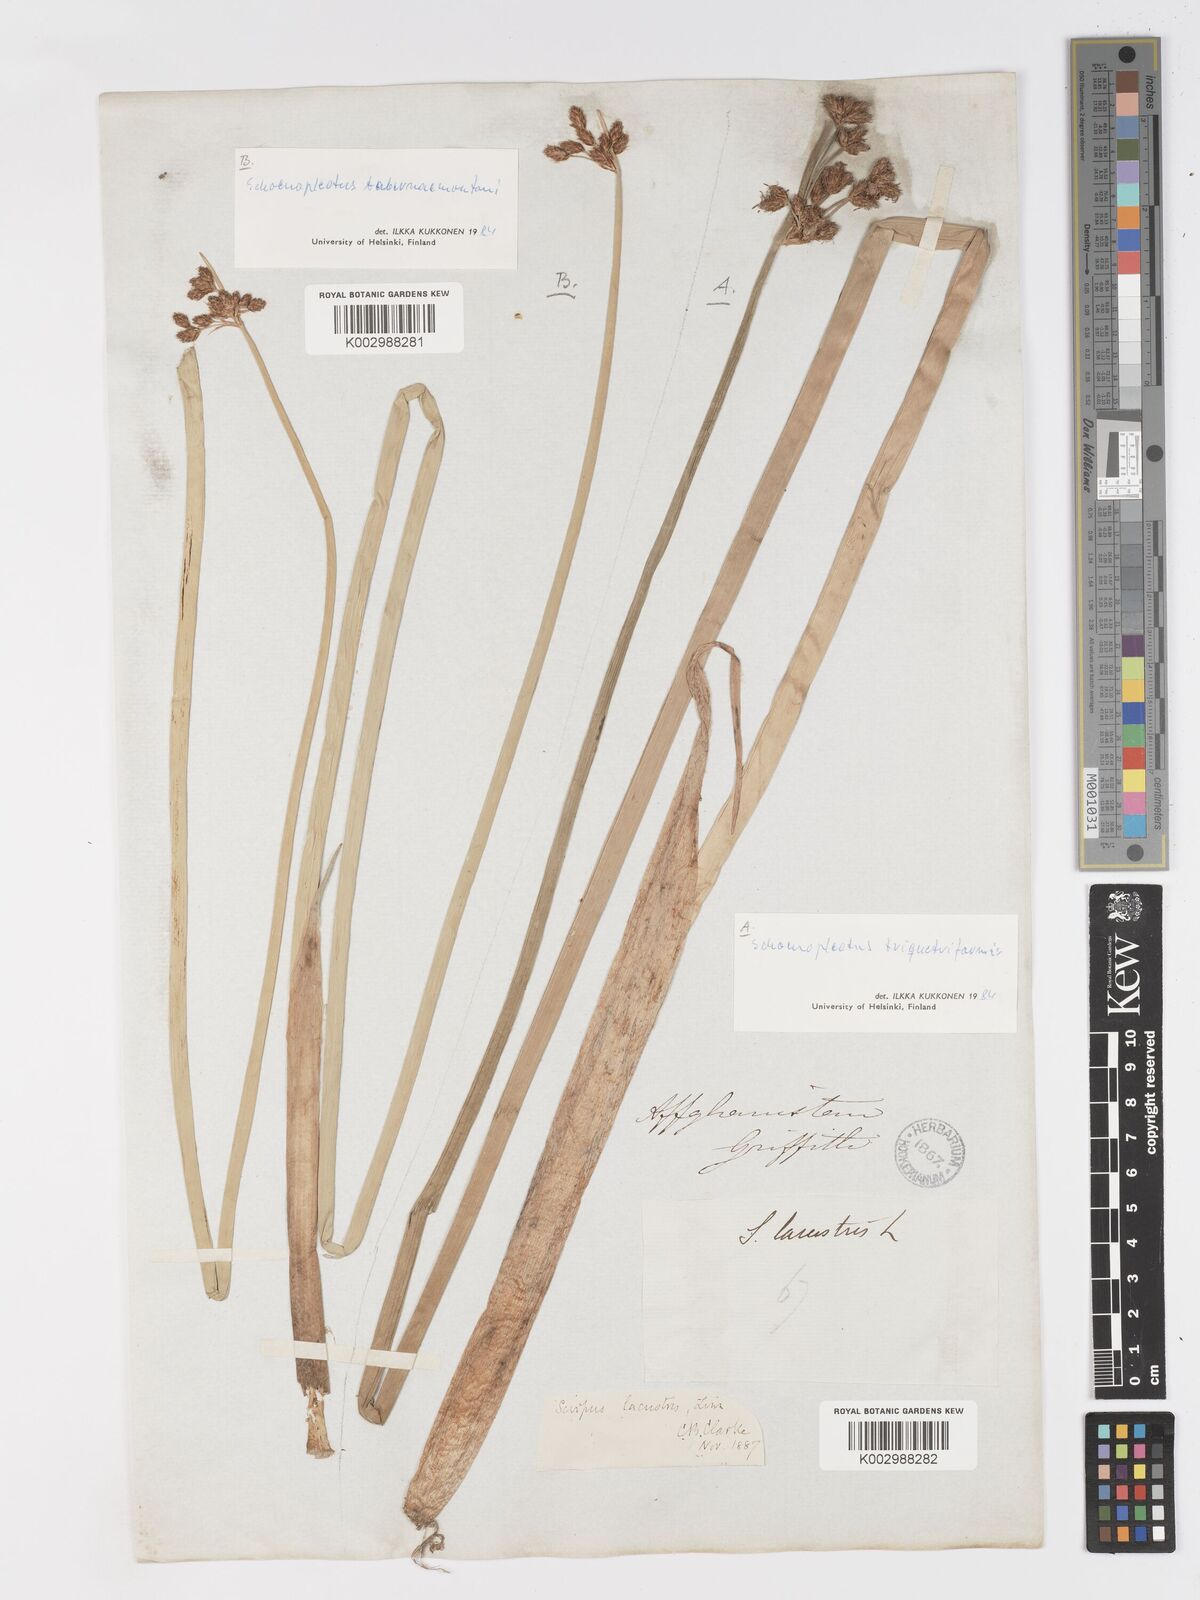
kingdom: Plantae
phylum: Tracheophyta
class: Liliopsida
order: Poales
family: Cyperaceae
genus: Schoenoplectus
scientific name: Schoenoplectus
